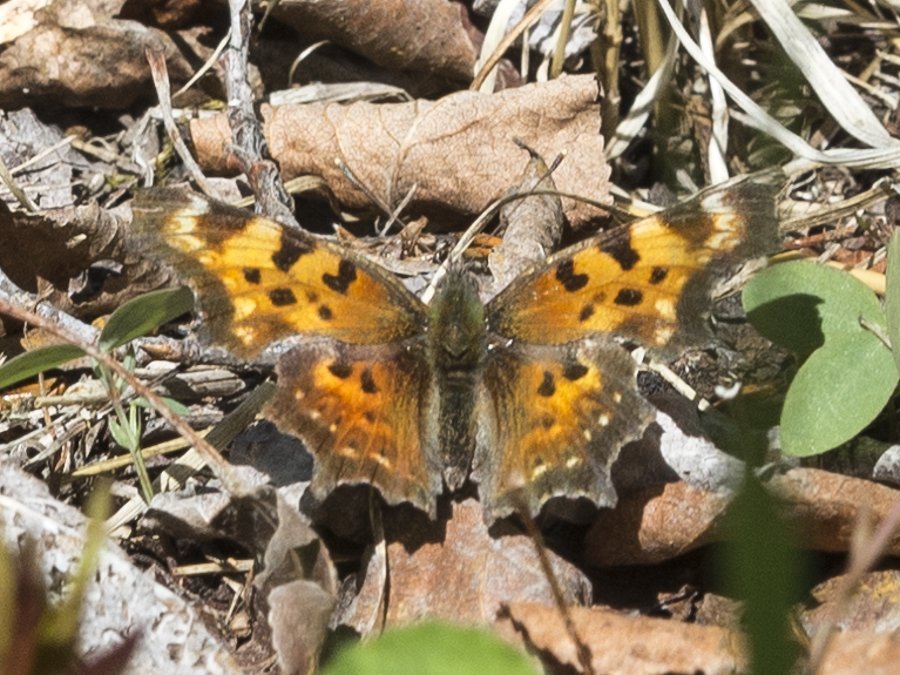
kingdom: Animalia
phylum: Arthropoda
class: Insecta
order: Lepidoptera
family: Nymphalidae
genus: Polygonia
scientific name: Polygonia faunus
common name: Green Comma
